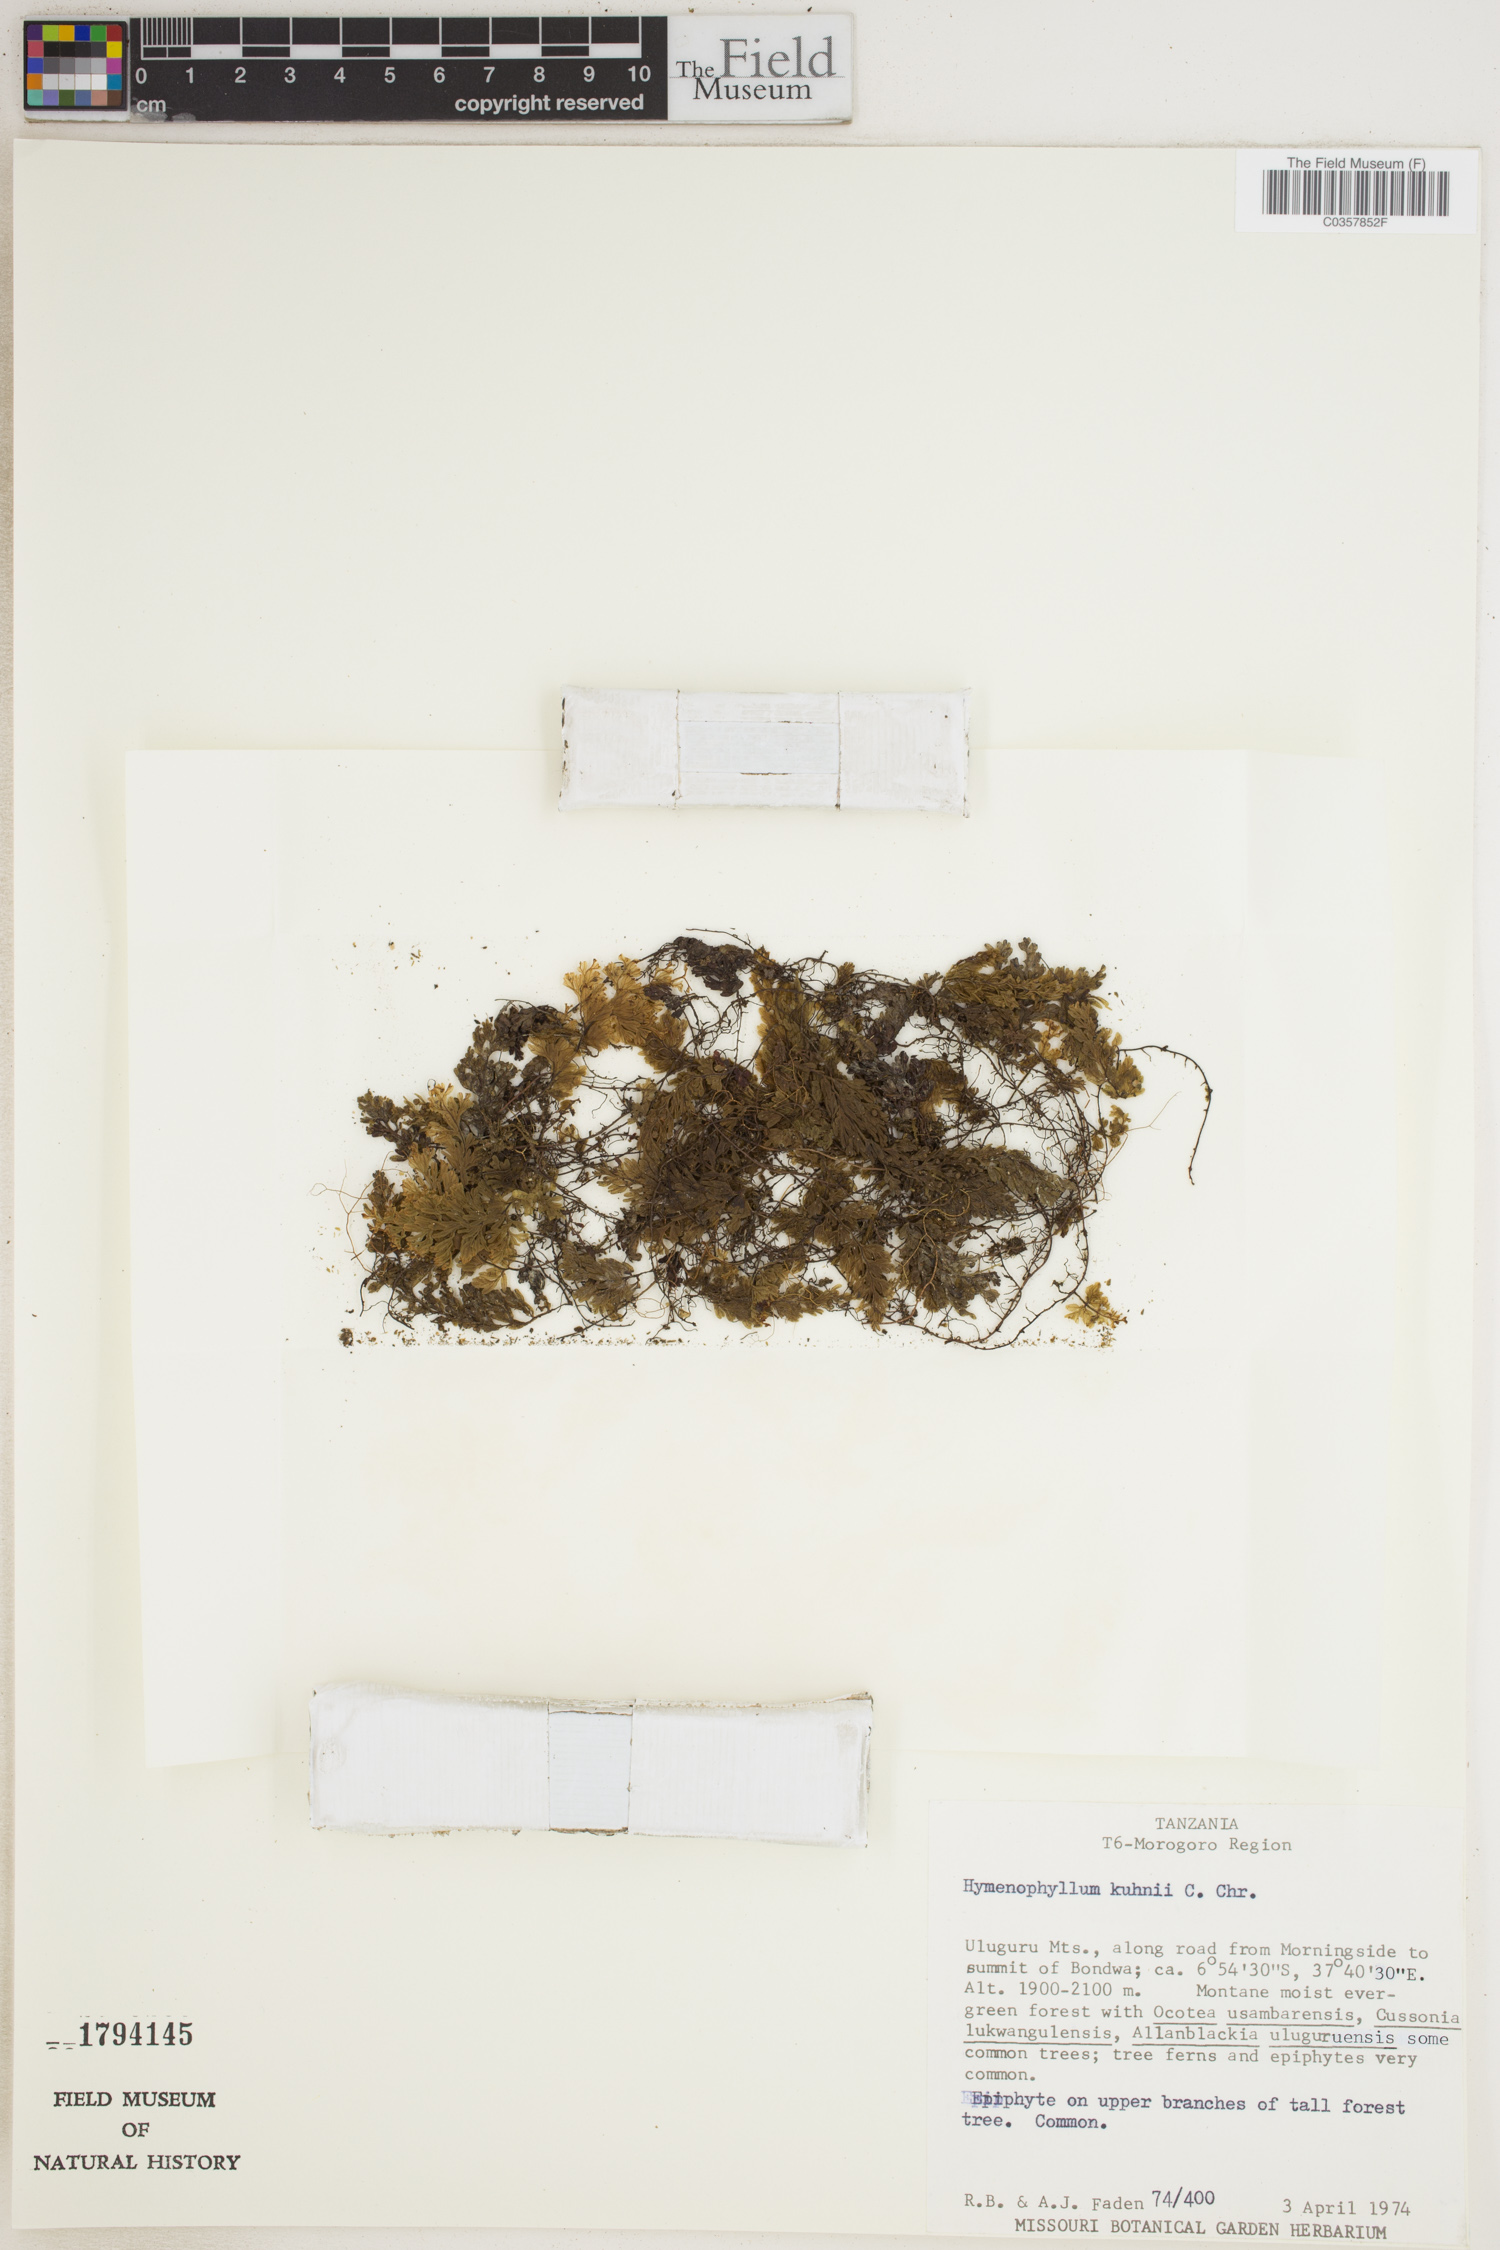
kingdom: Plantae
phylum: Tracheophyta
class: Polypodiopsida
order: Hymenophyllales
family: Hymenophyllaceae
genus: Hymenophyllum
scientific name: Hymenophyllum kuhnii
